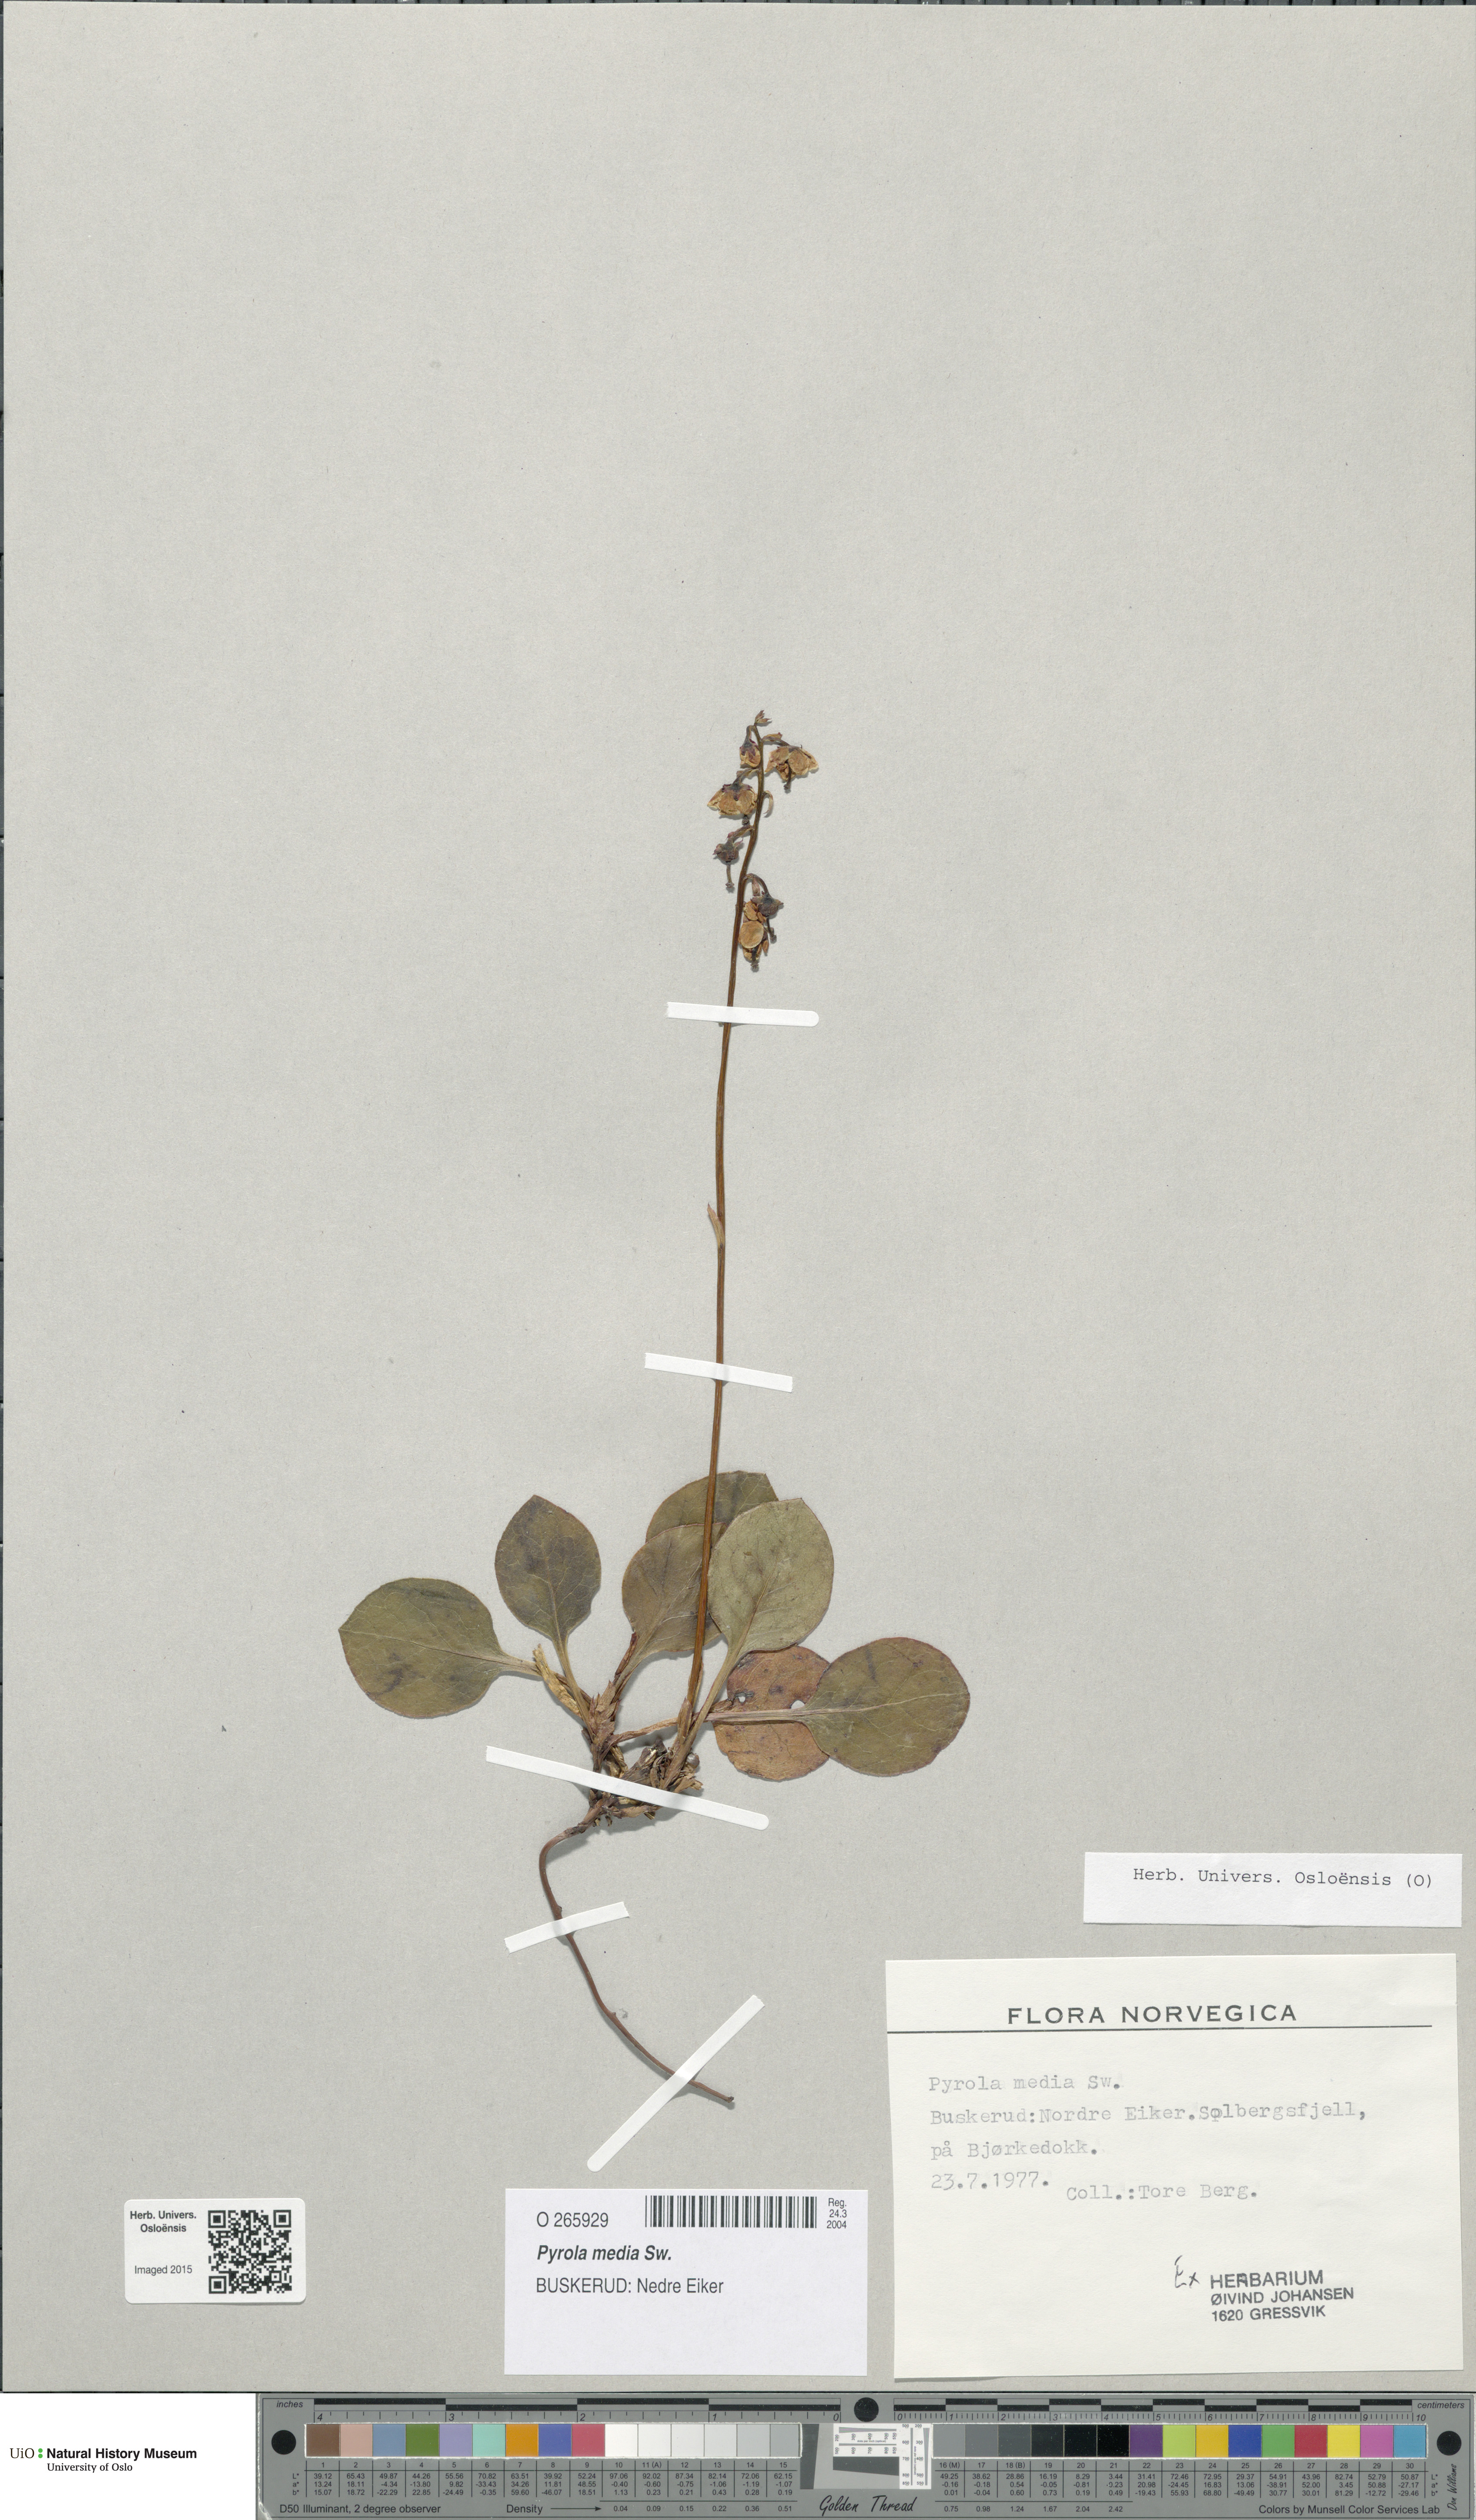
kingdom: Plantae
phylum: Tracheophyta
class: Magnoliopsida
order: Ericales
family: Ericaceae
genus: Pyrola
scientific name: Pyrola media
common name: Intermediate wintergreen
